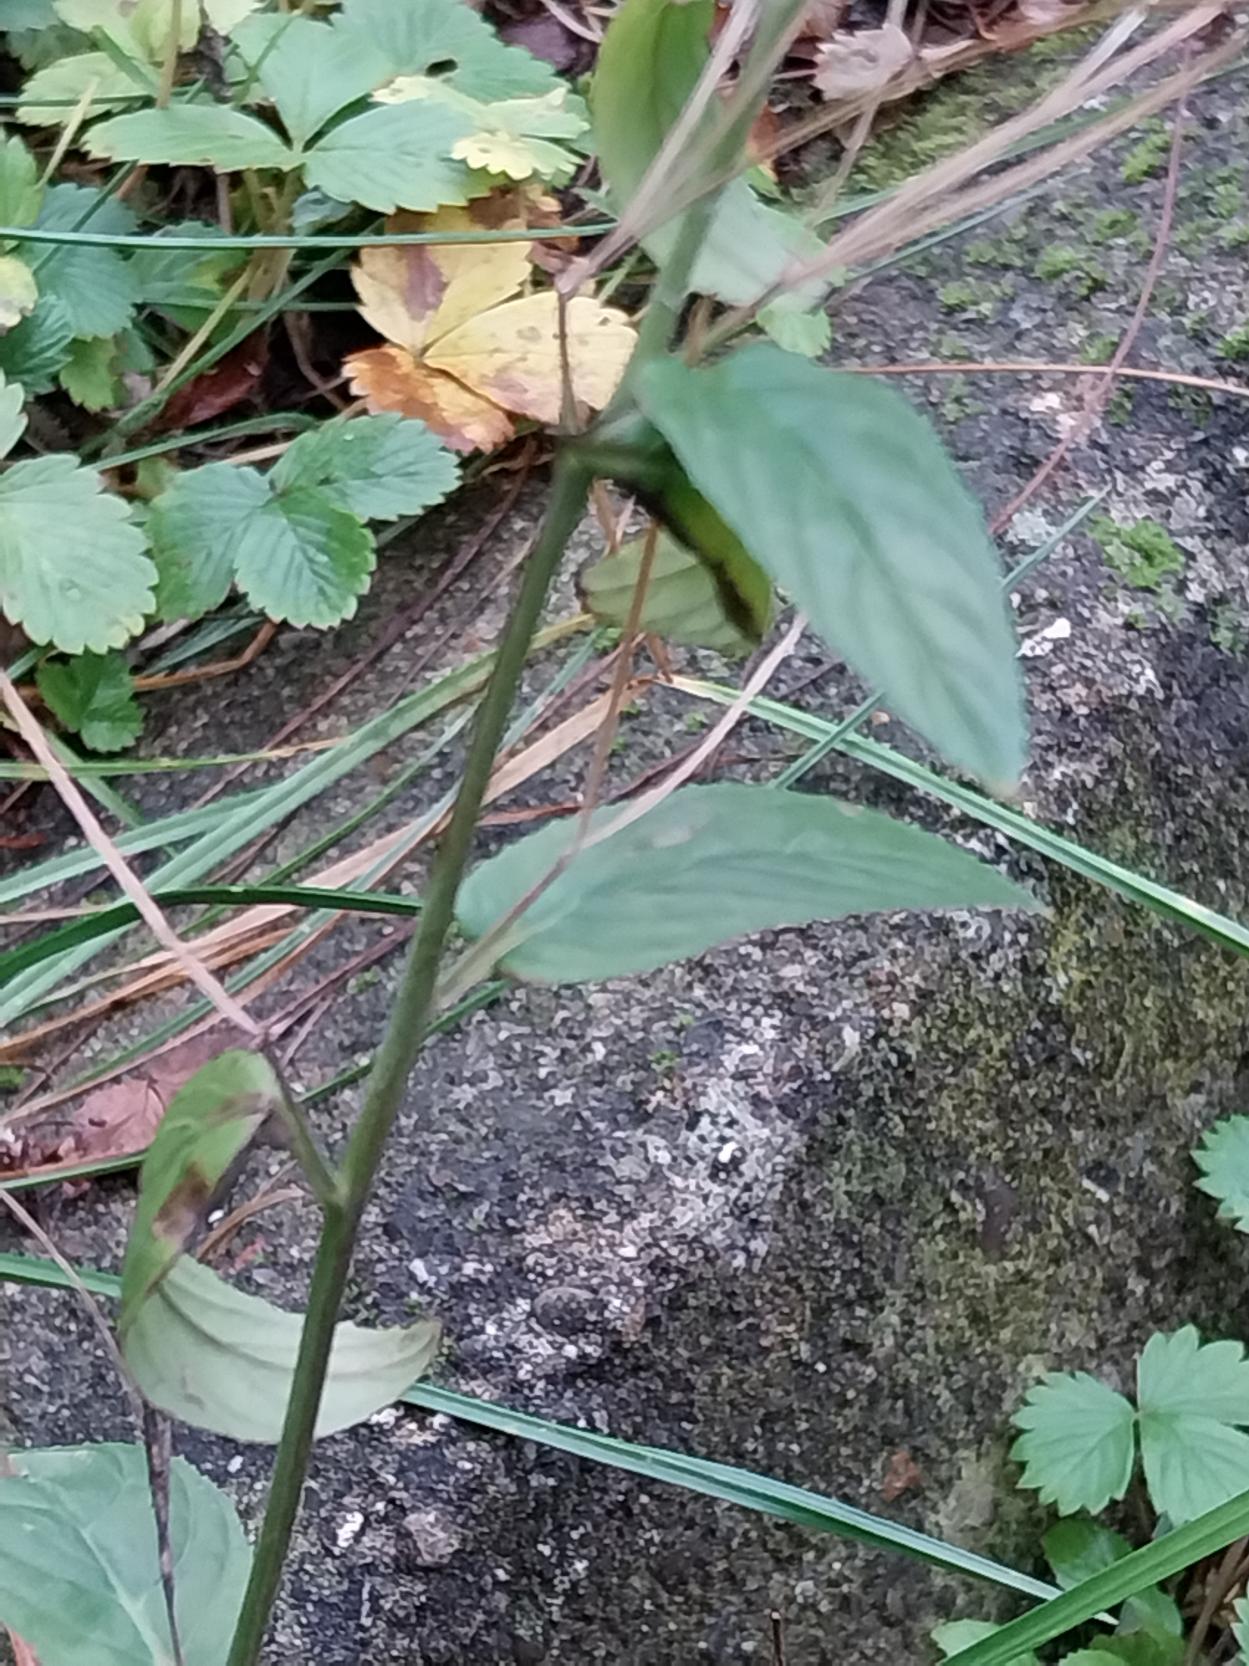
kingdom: Plantae
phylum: Tracheophyta
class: Magnoliopsida
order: Myrtales
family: Onagraceae
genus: Epilobium
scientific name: Epilobium roseum
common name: Rosen-dueurt
